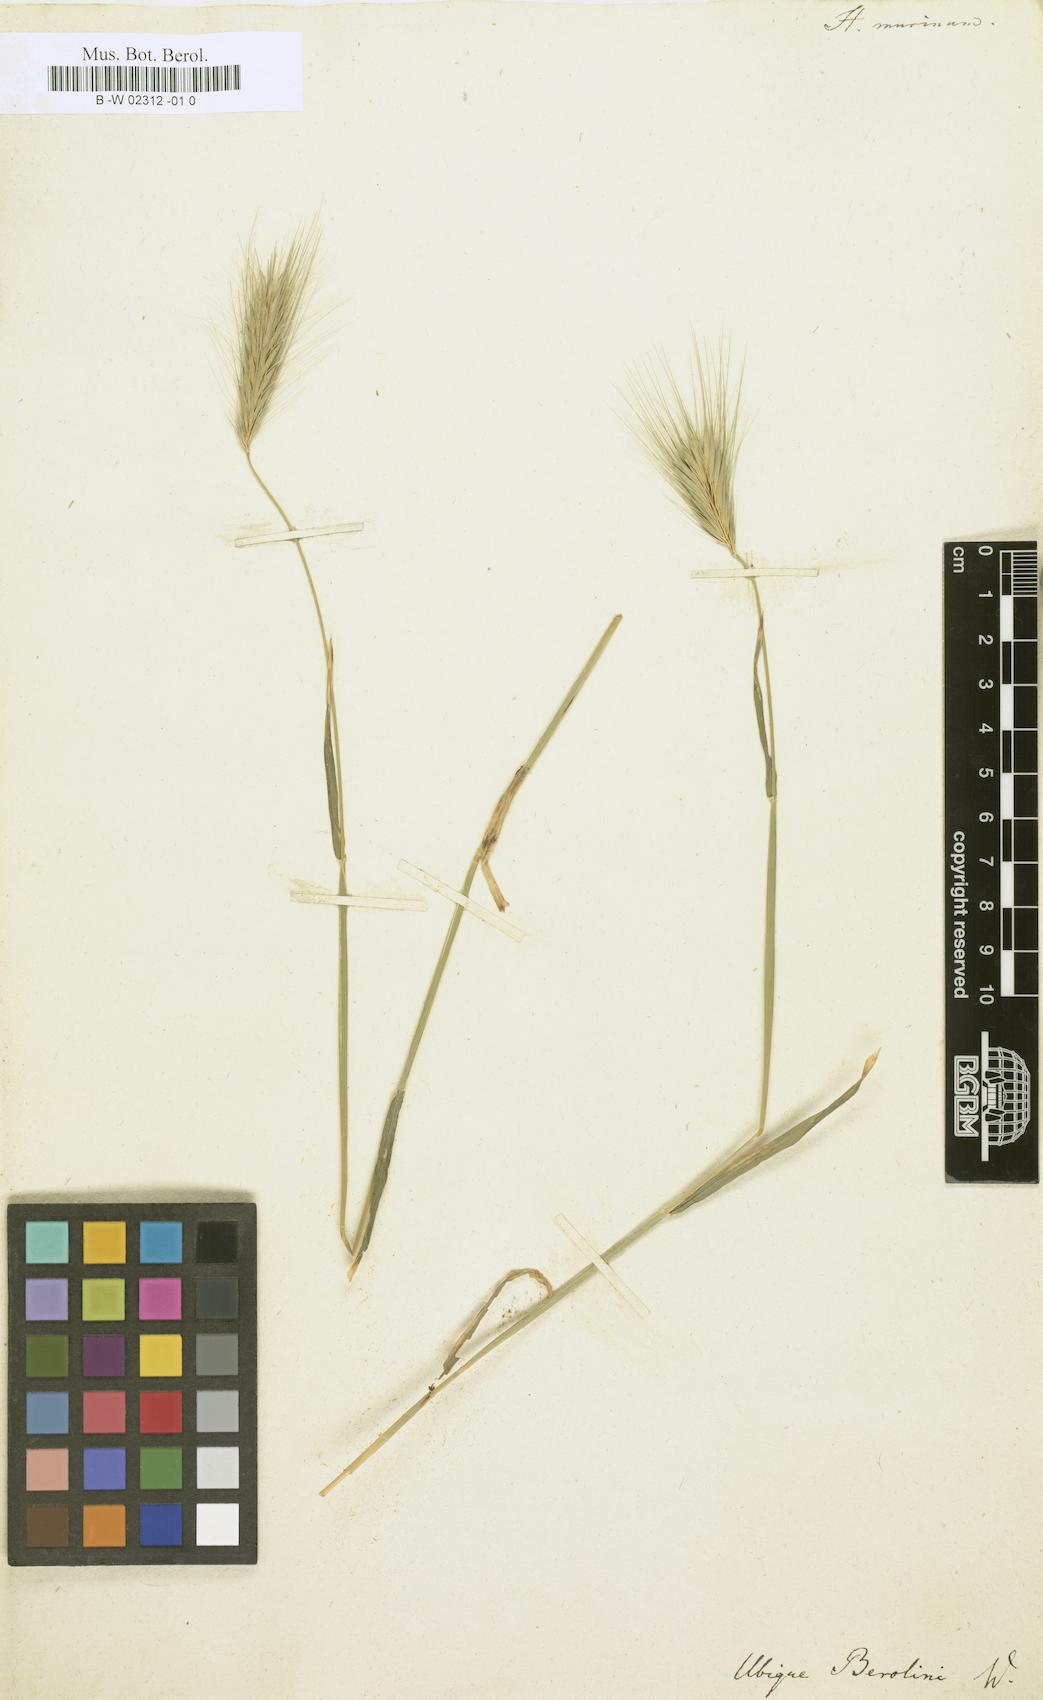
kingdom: Plantae
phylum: Tracheophyta
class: Liliopsida
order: Poales
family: Poaceae
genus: Hordeum
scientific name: Hordeum murinum
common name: Wall barley
